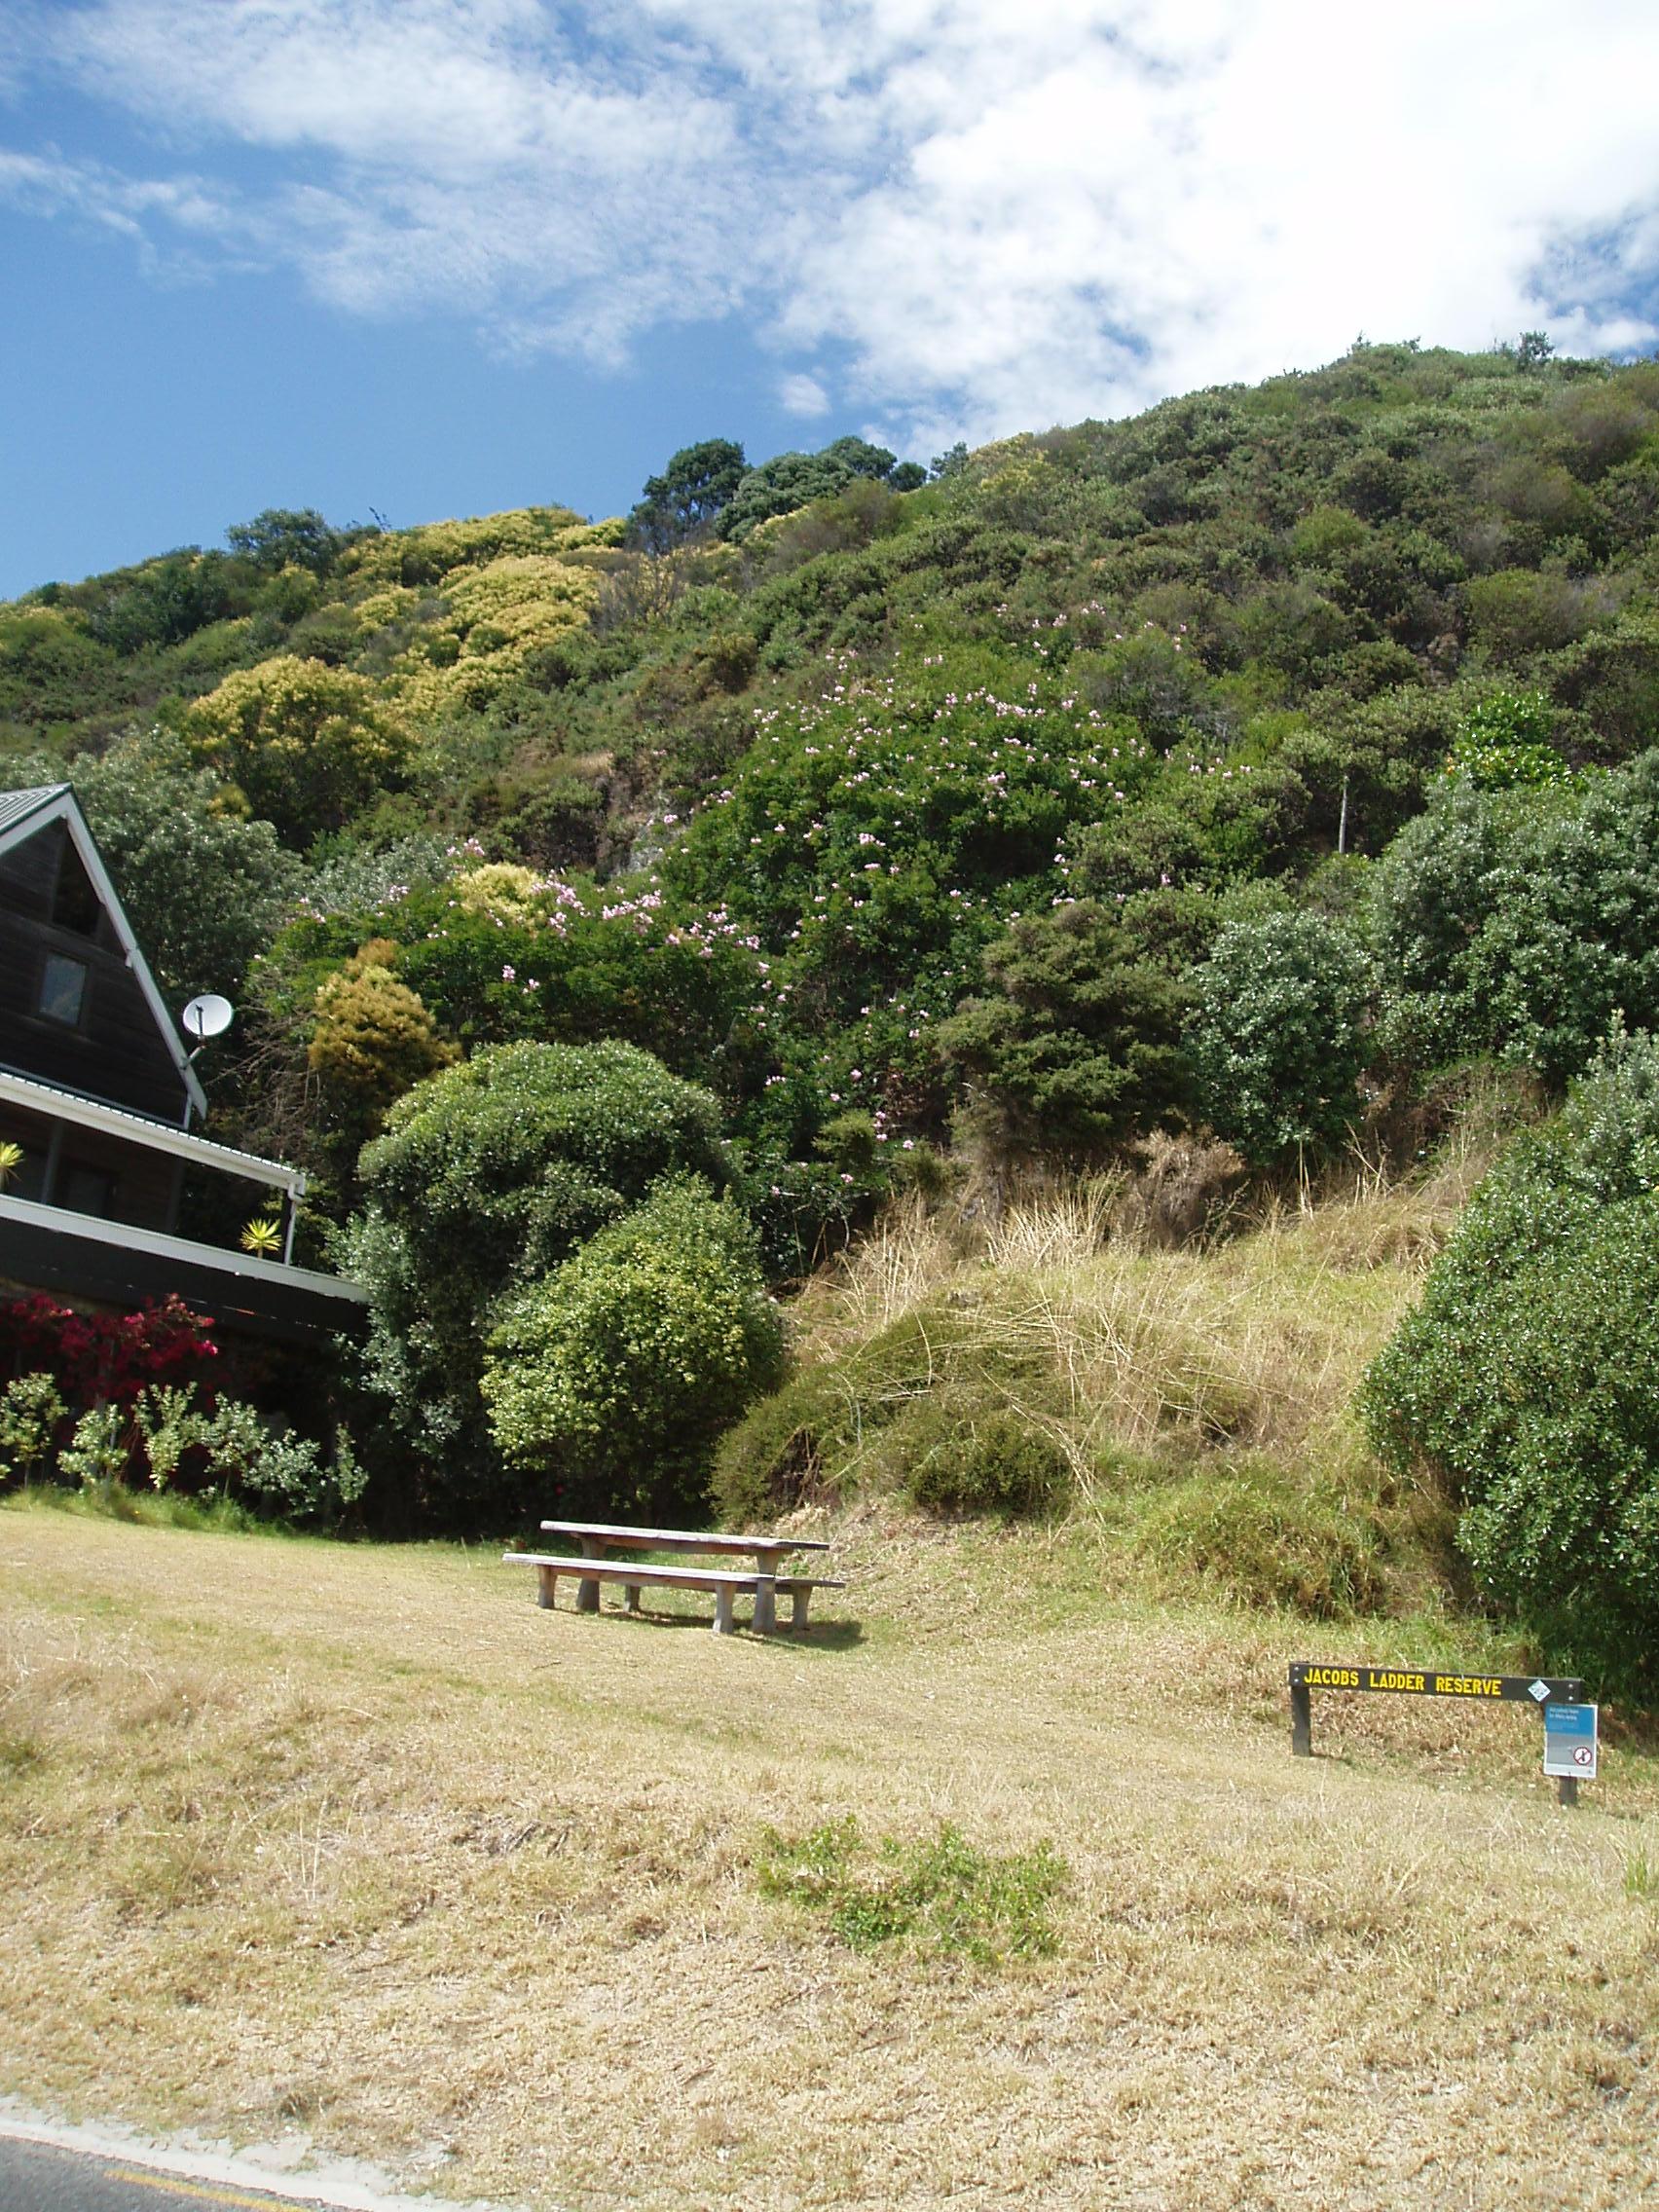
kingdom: Plantae
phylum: Tracheophyta
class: Magnoliopsida
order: Lamiales
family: Bignoniaceae
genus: Podranea
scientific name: Podranea ricasoliana
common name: Zimbabwe creeper
